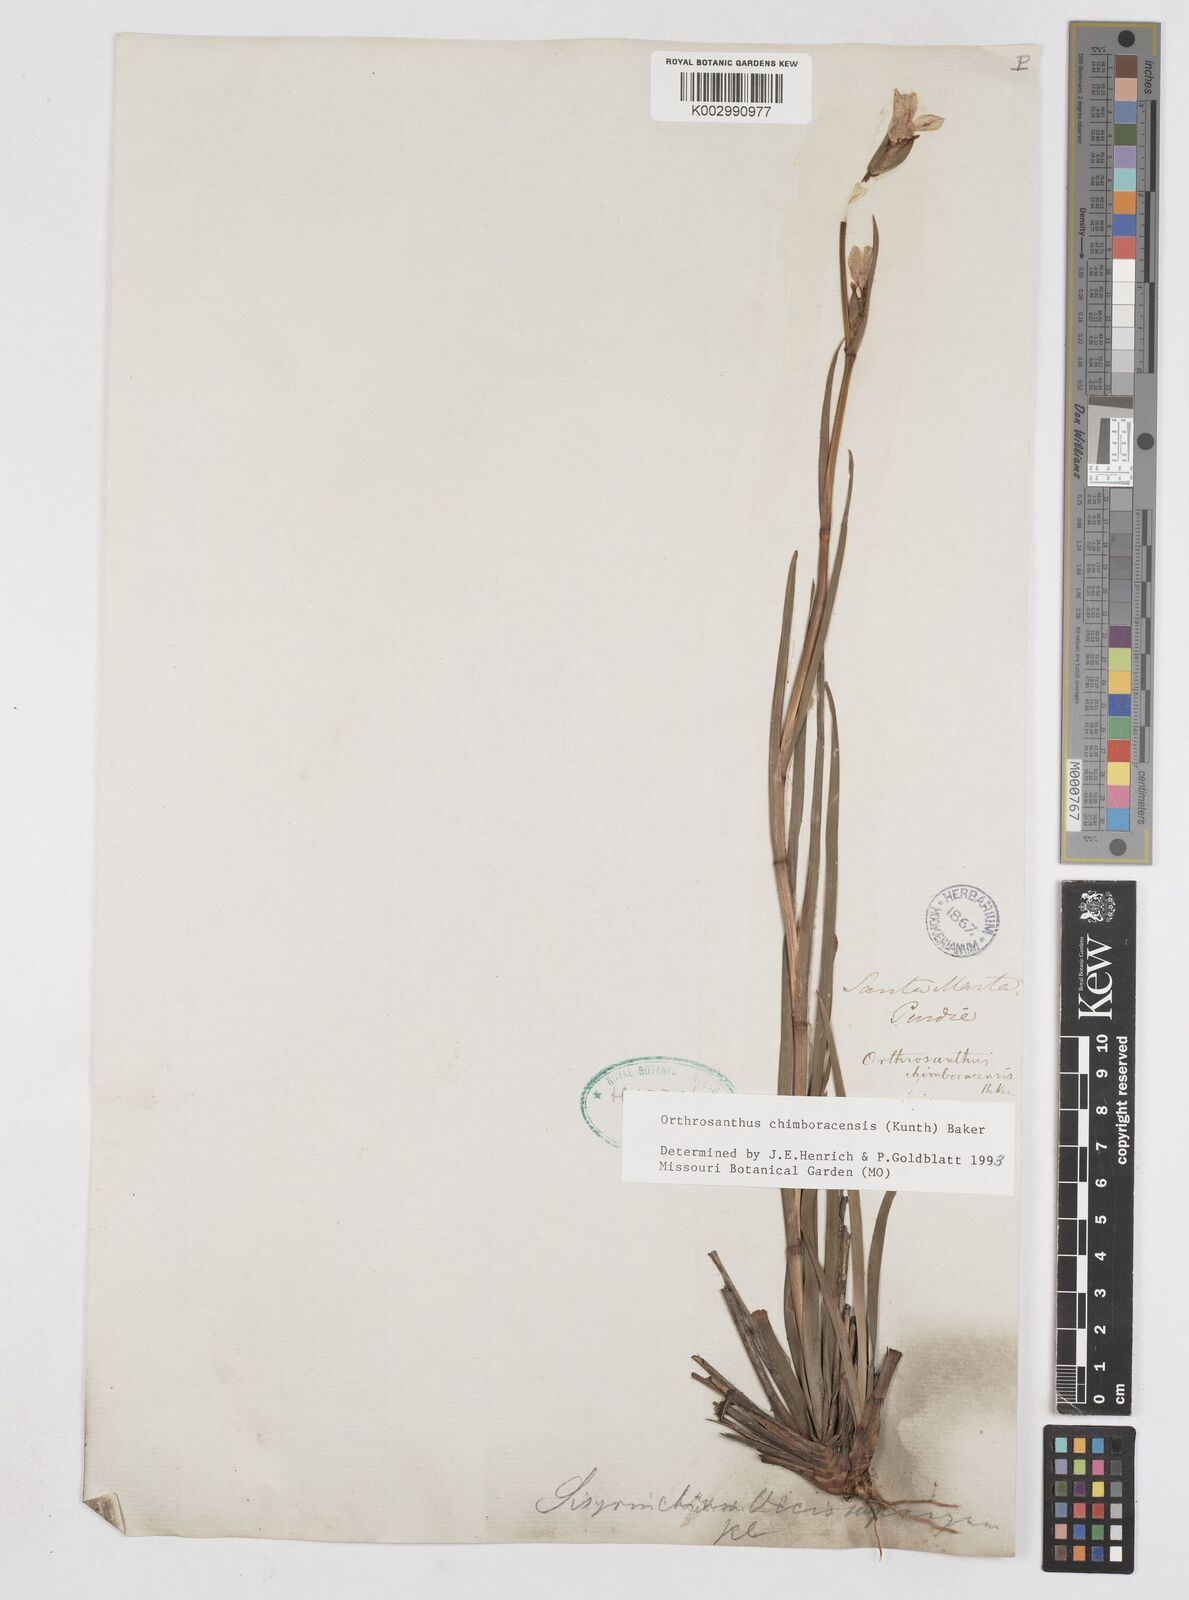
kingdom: Plantae
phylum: Tracheophyta
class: Liliopsida
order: Asparagales
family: Iridaceae
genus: Orthrosanthus
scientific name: Orthrosanthus chimboracensis
